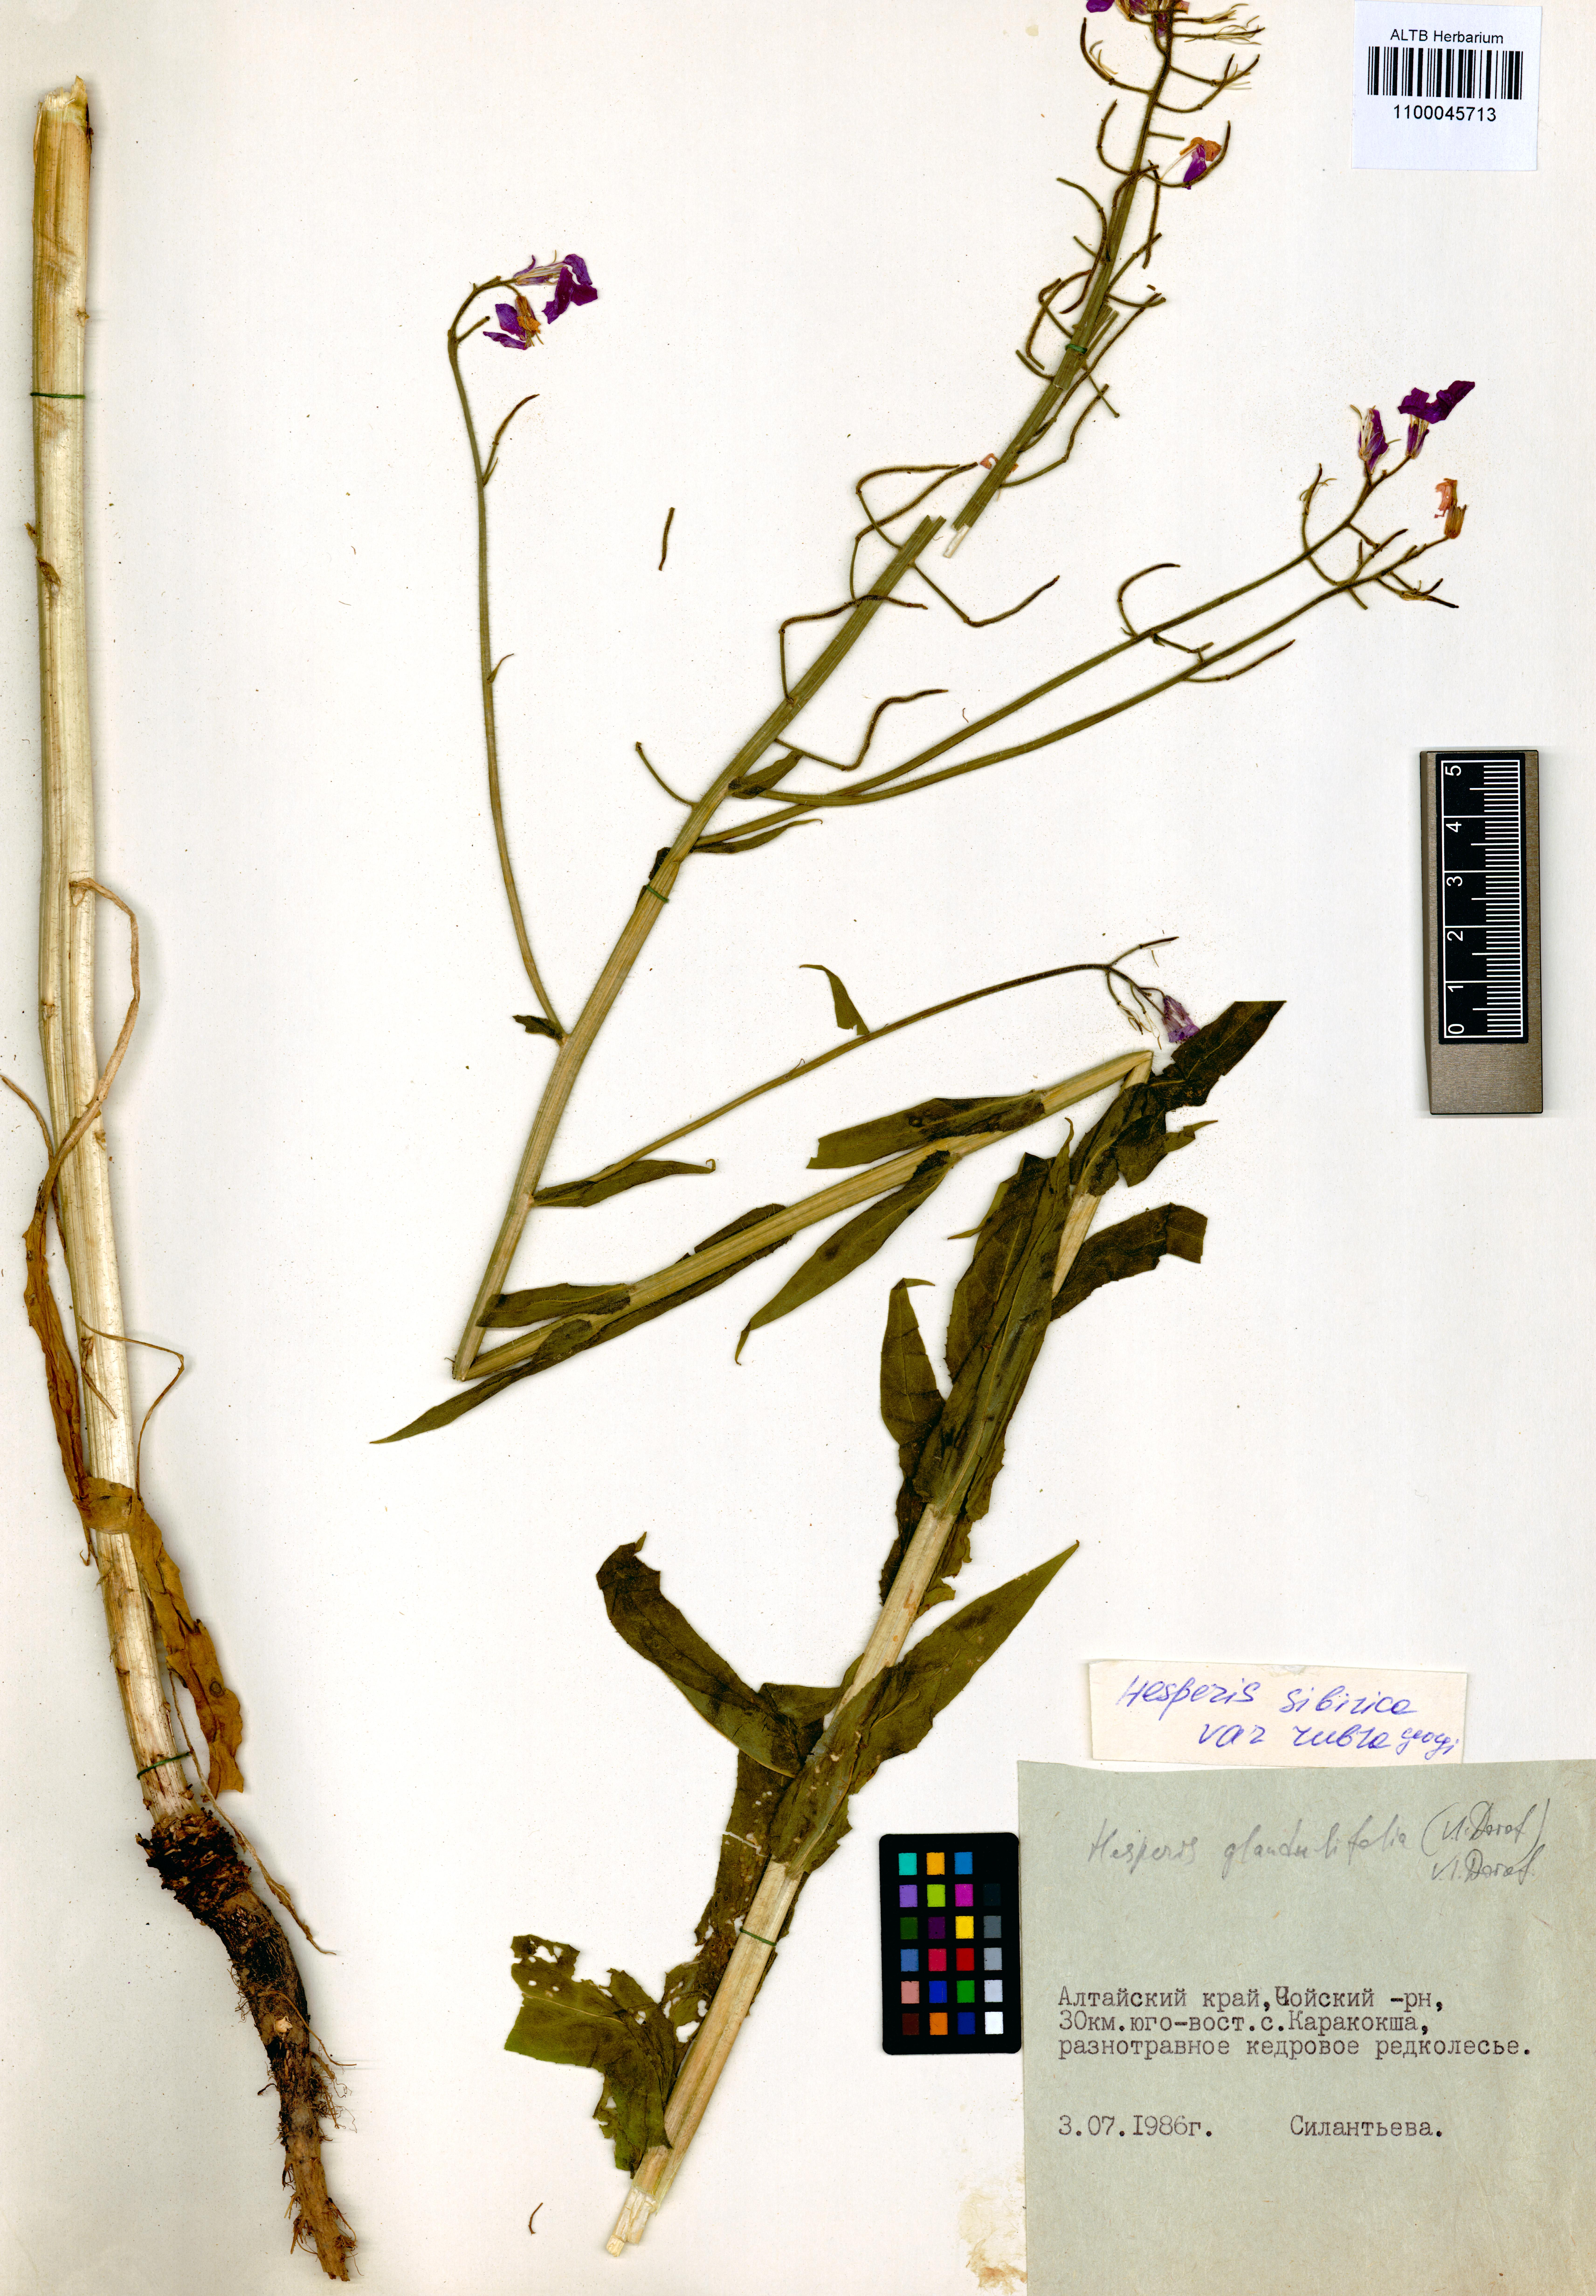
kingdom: Plantae
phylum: Tracheophyta
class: Magnoliopsida
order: Brassicales
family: Brassicaceae
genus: Hesperis
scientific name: Hesperis sibirica
